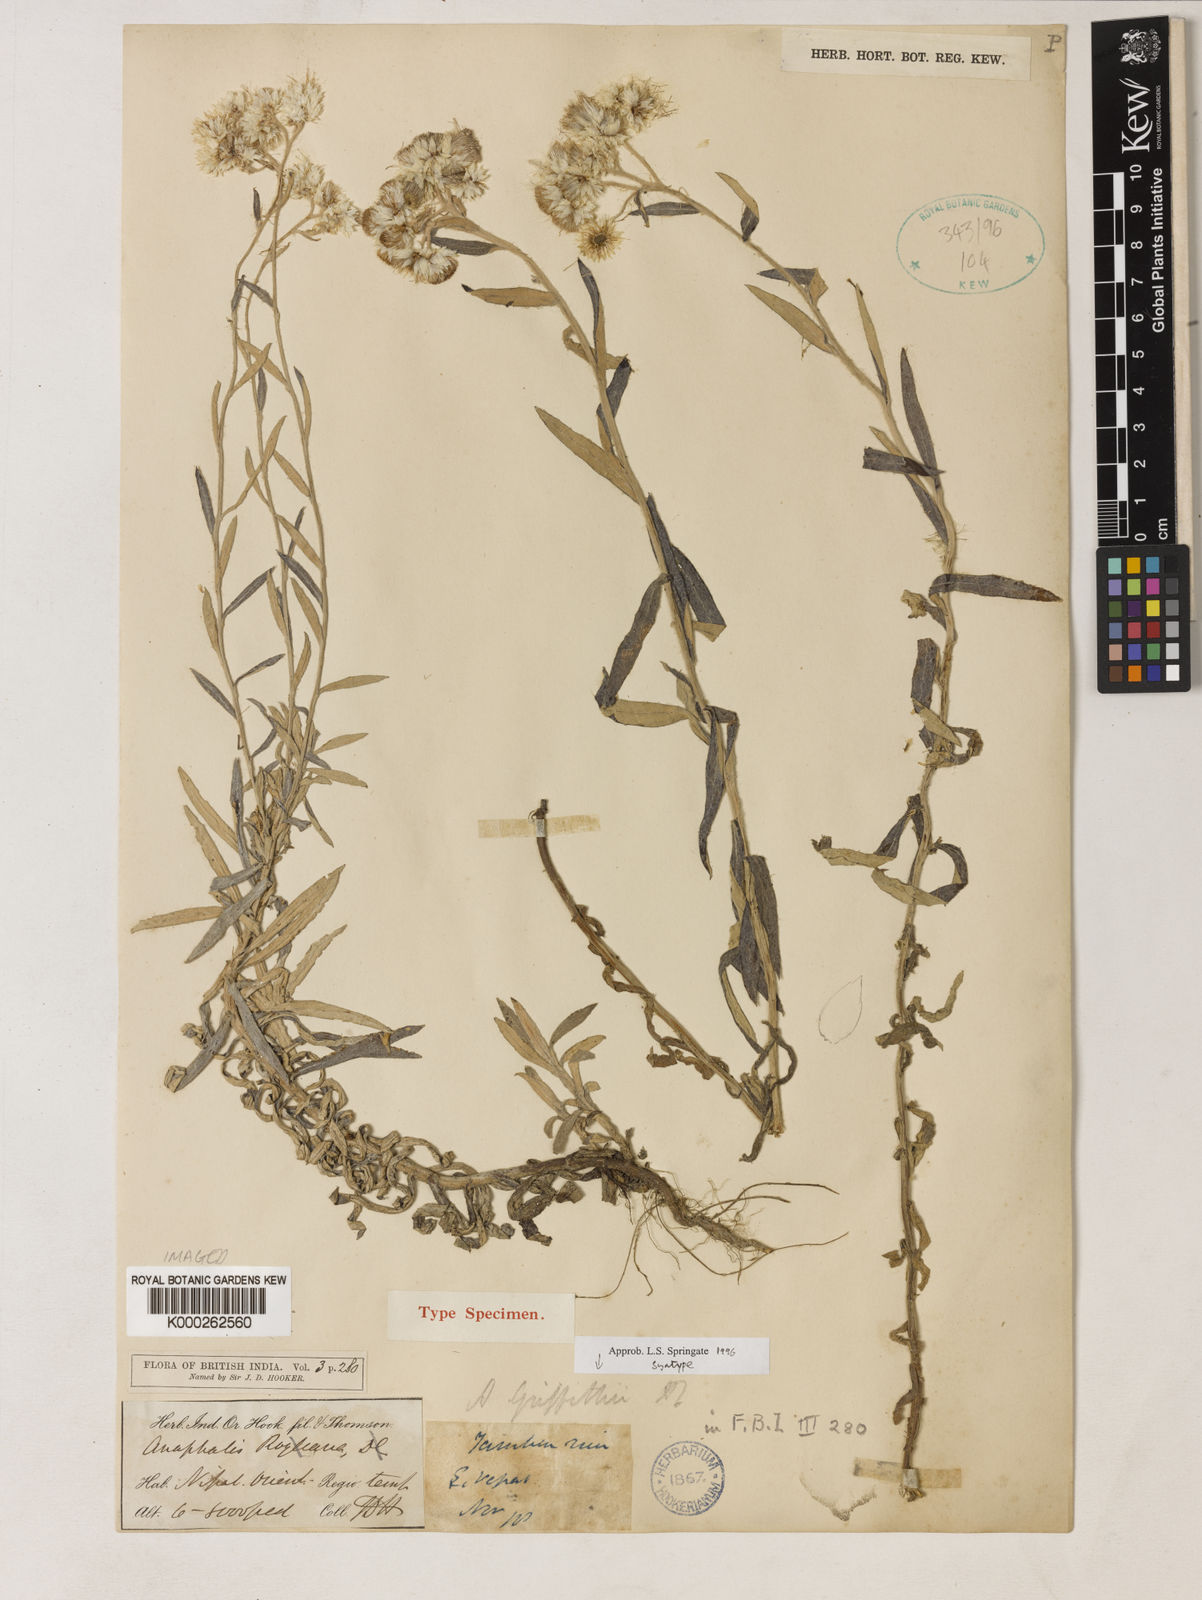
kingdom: Plantae
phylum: Tracheophyta
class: Magnoliopsida
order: Asterales
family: Asteraceae
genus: Anaphalis
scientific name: Anaphalis
